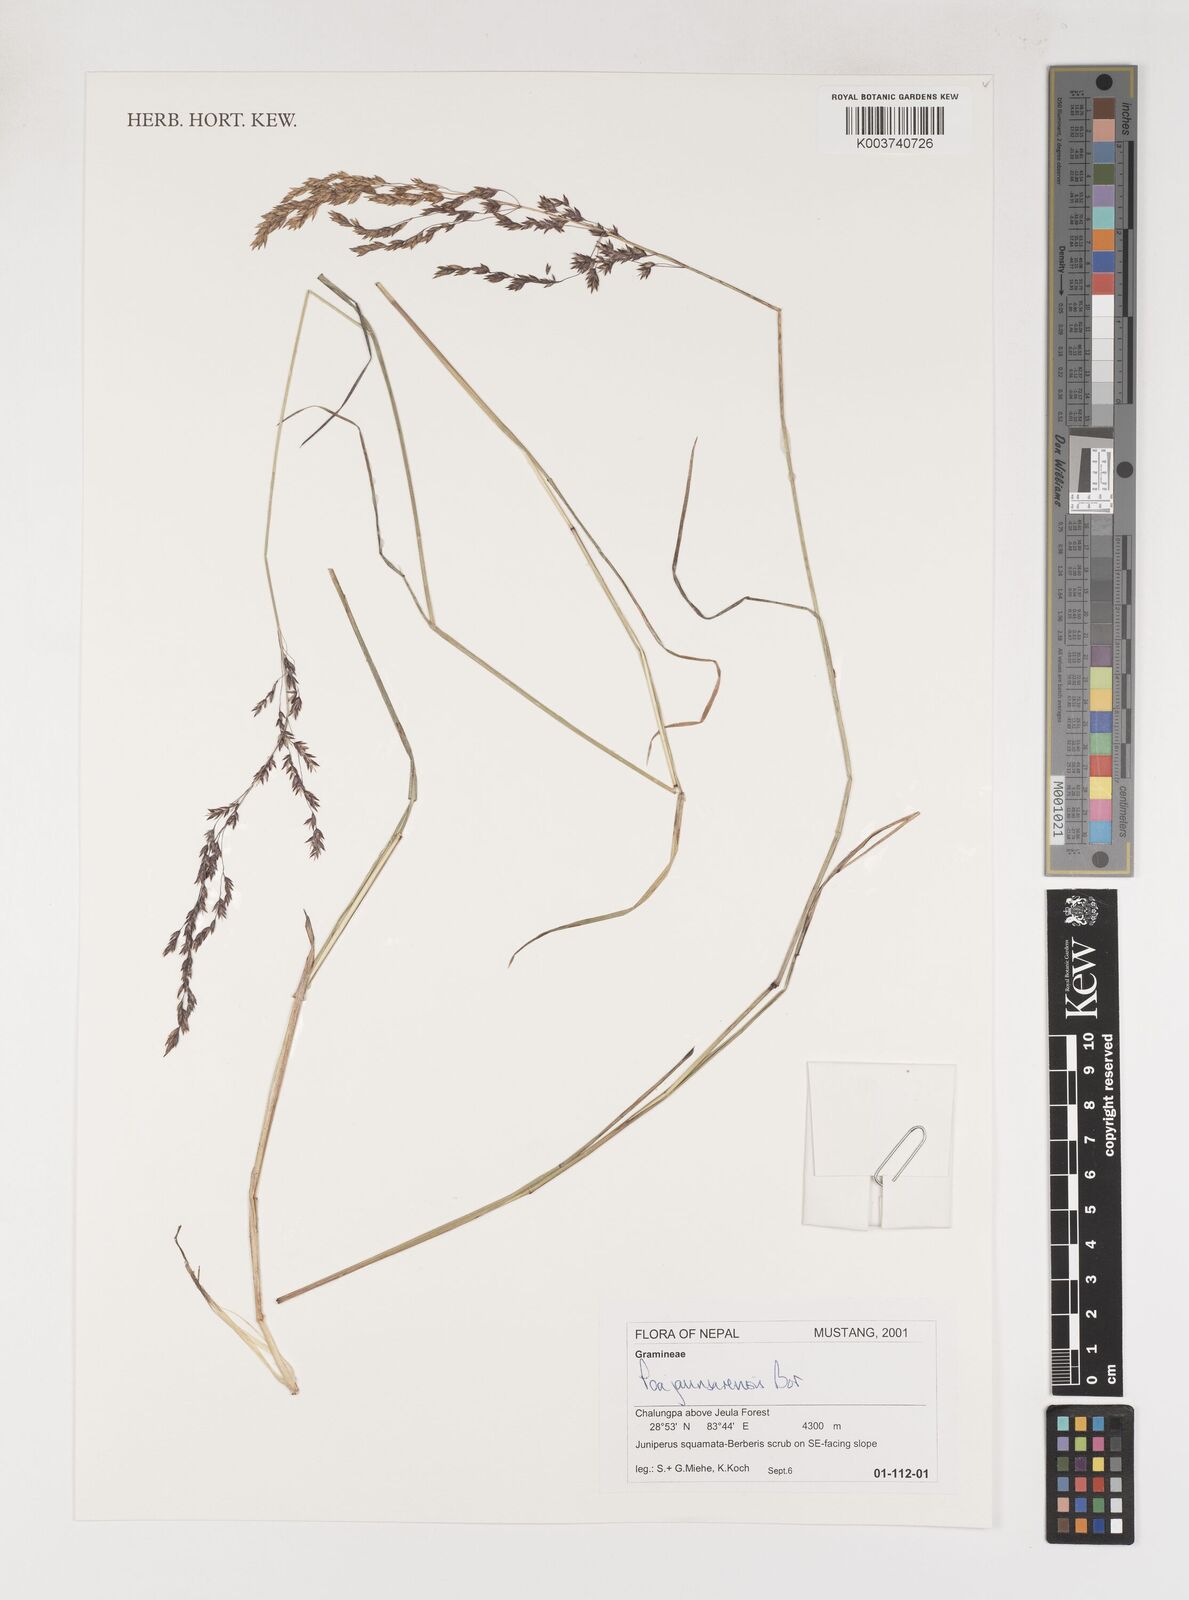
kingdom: Plantae
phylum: Tracheophyta
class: Liliopsida
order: Poales
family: Poaceae
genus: Poa
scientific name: Poa jaunsarensis
